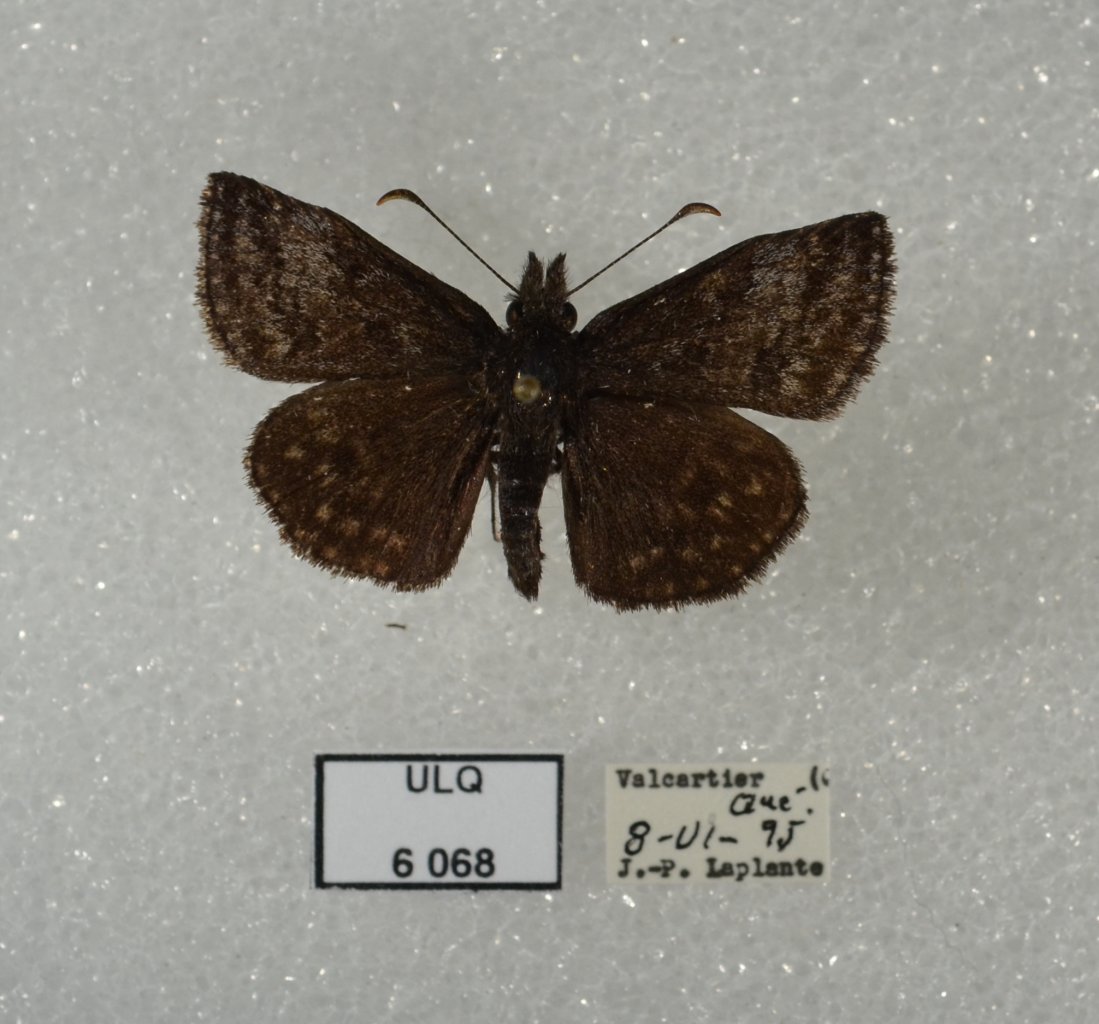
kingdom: Animalia
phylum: Arthropoda
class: Insecta
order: Lepidoptera
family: Hesperiidae
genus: Erynnis
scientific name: Erynnis icelus
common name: Dreamy Duskywing
